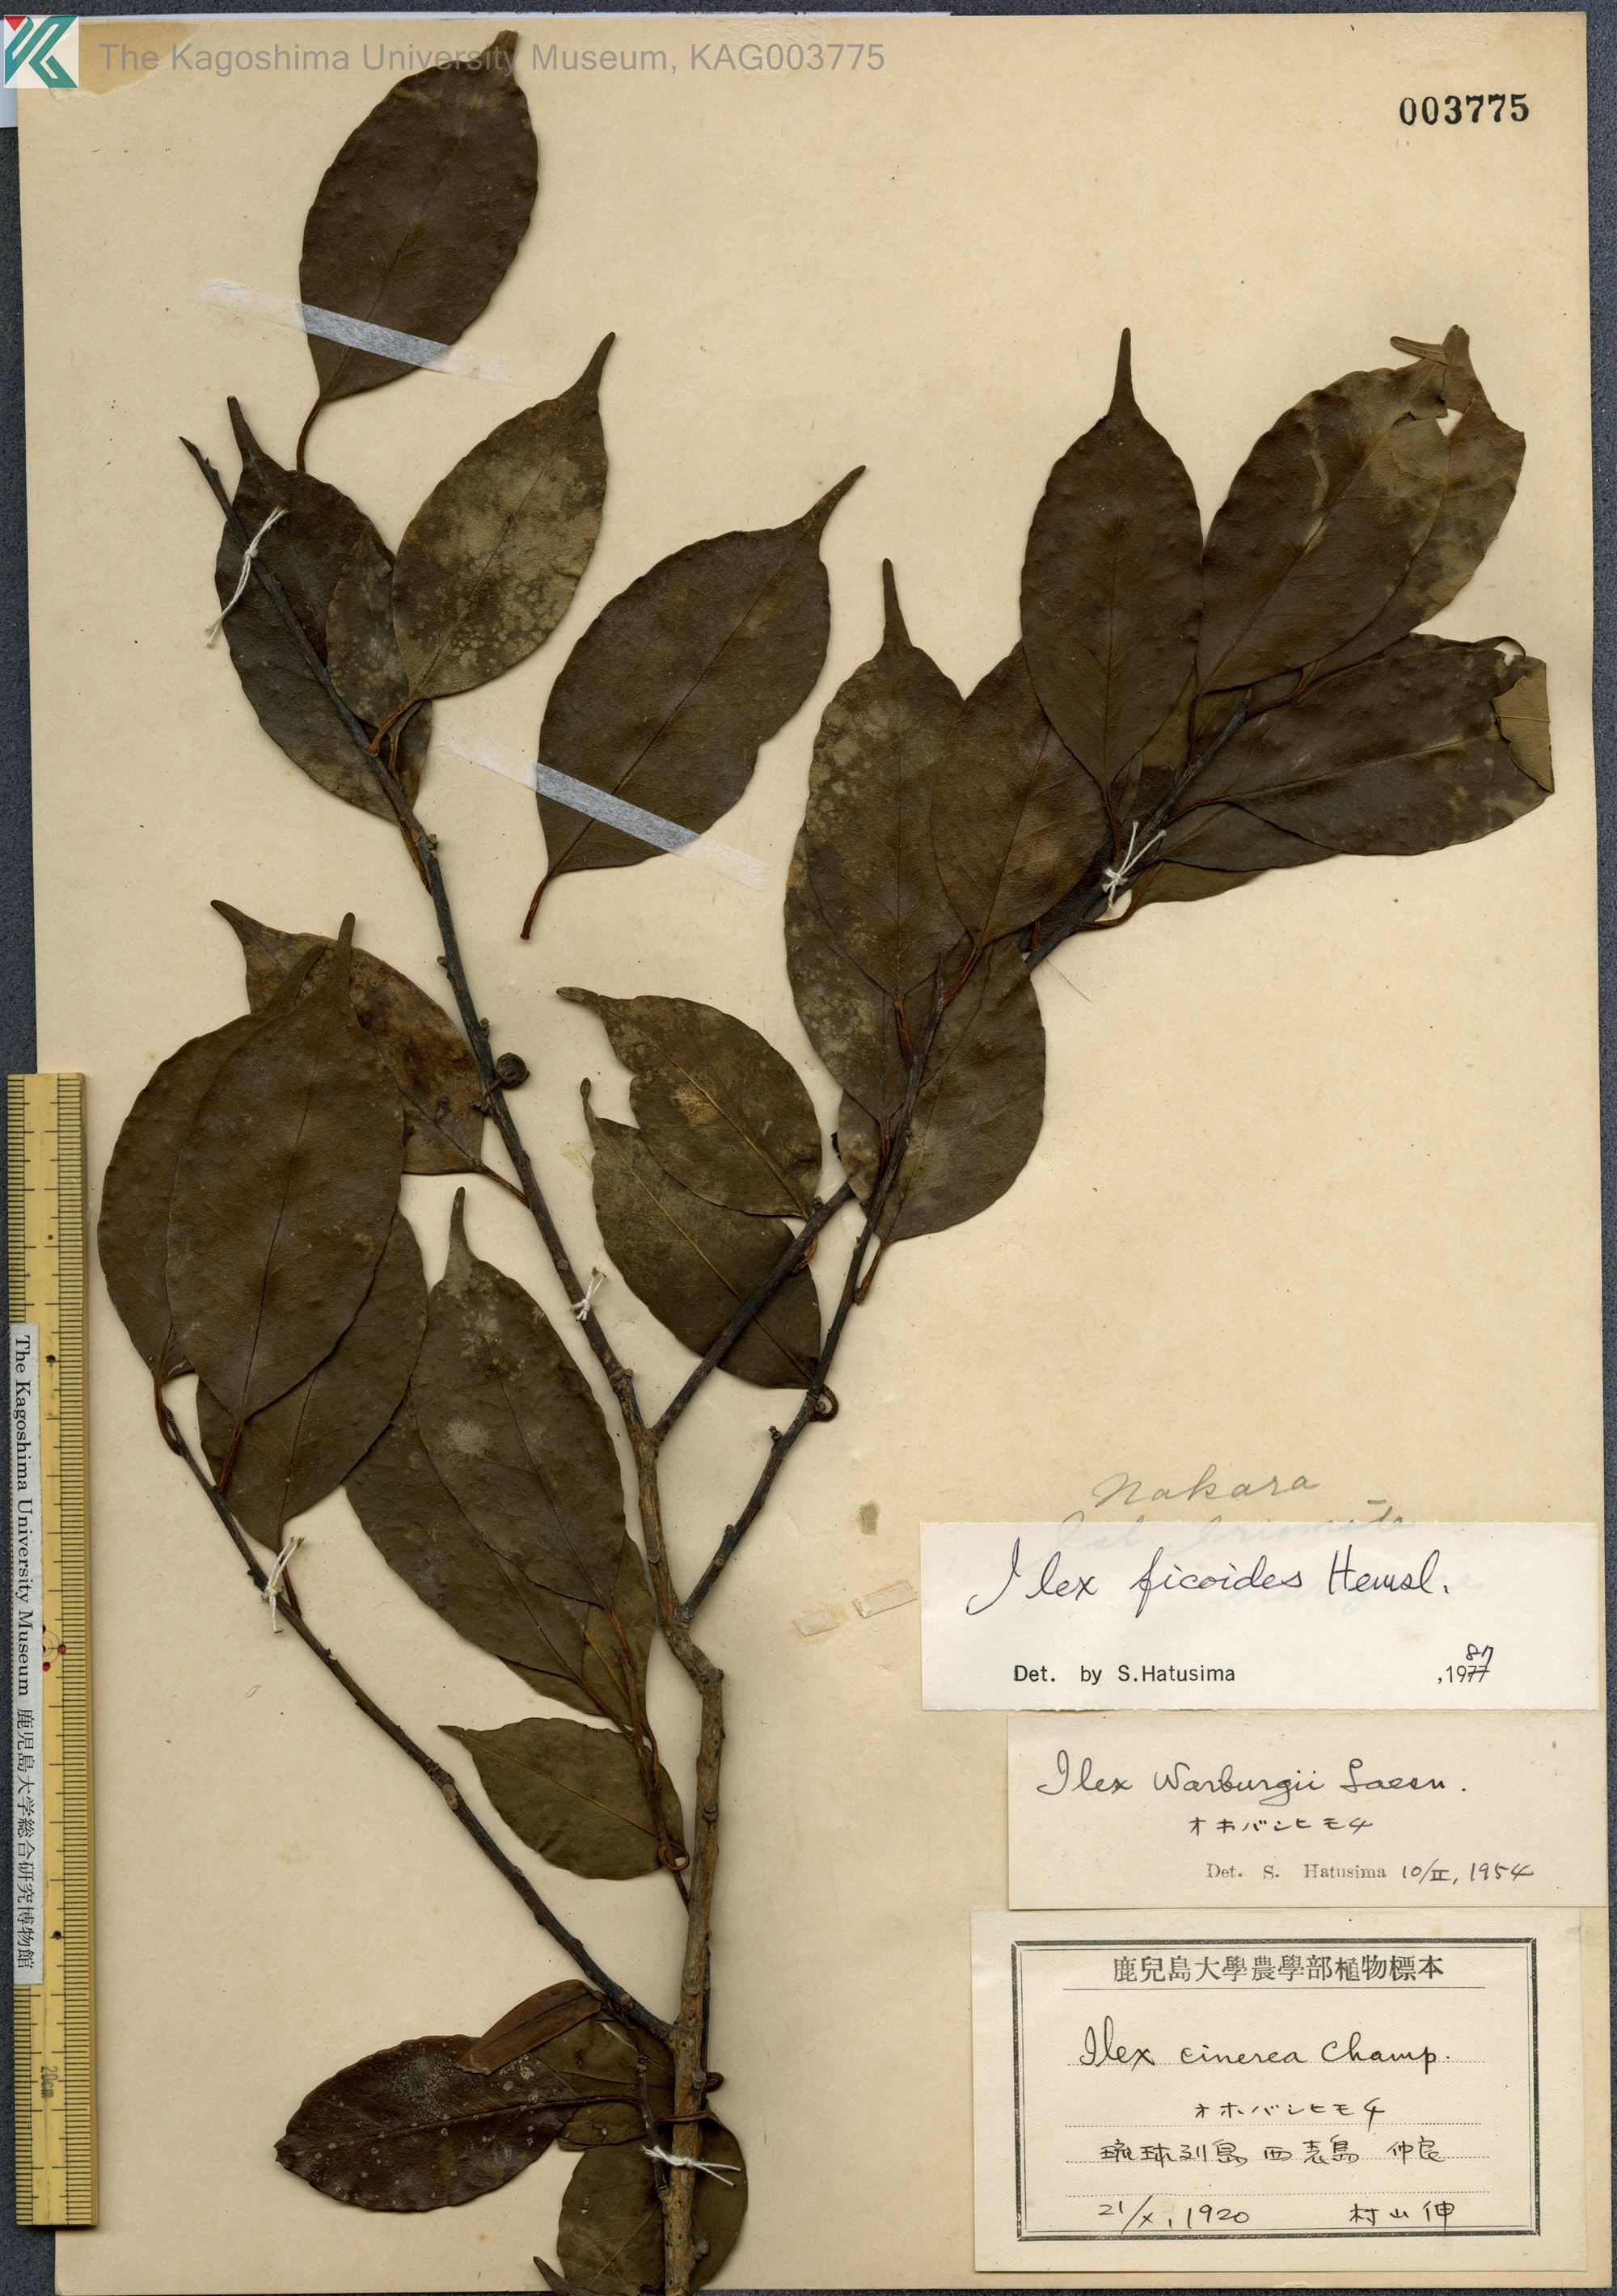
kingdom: Plantae
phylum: Tracheophyta
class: Magnoliopsida
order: Aquifoliales
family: Aquifoliaceae
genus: Ilex
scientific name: Ilex warburgii
